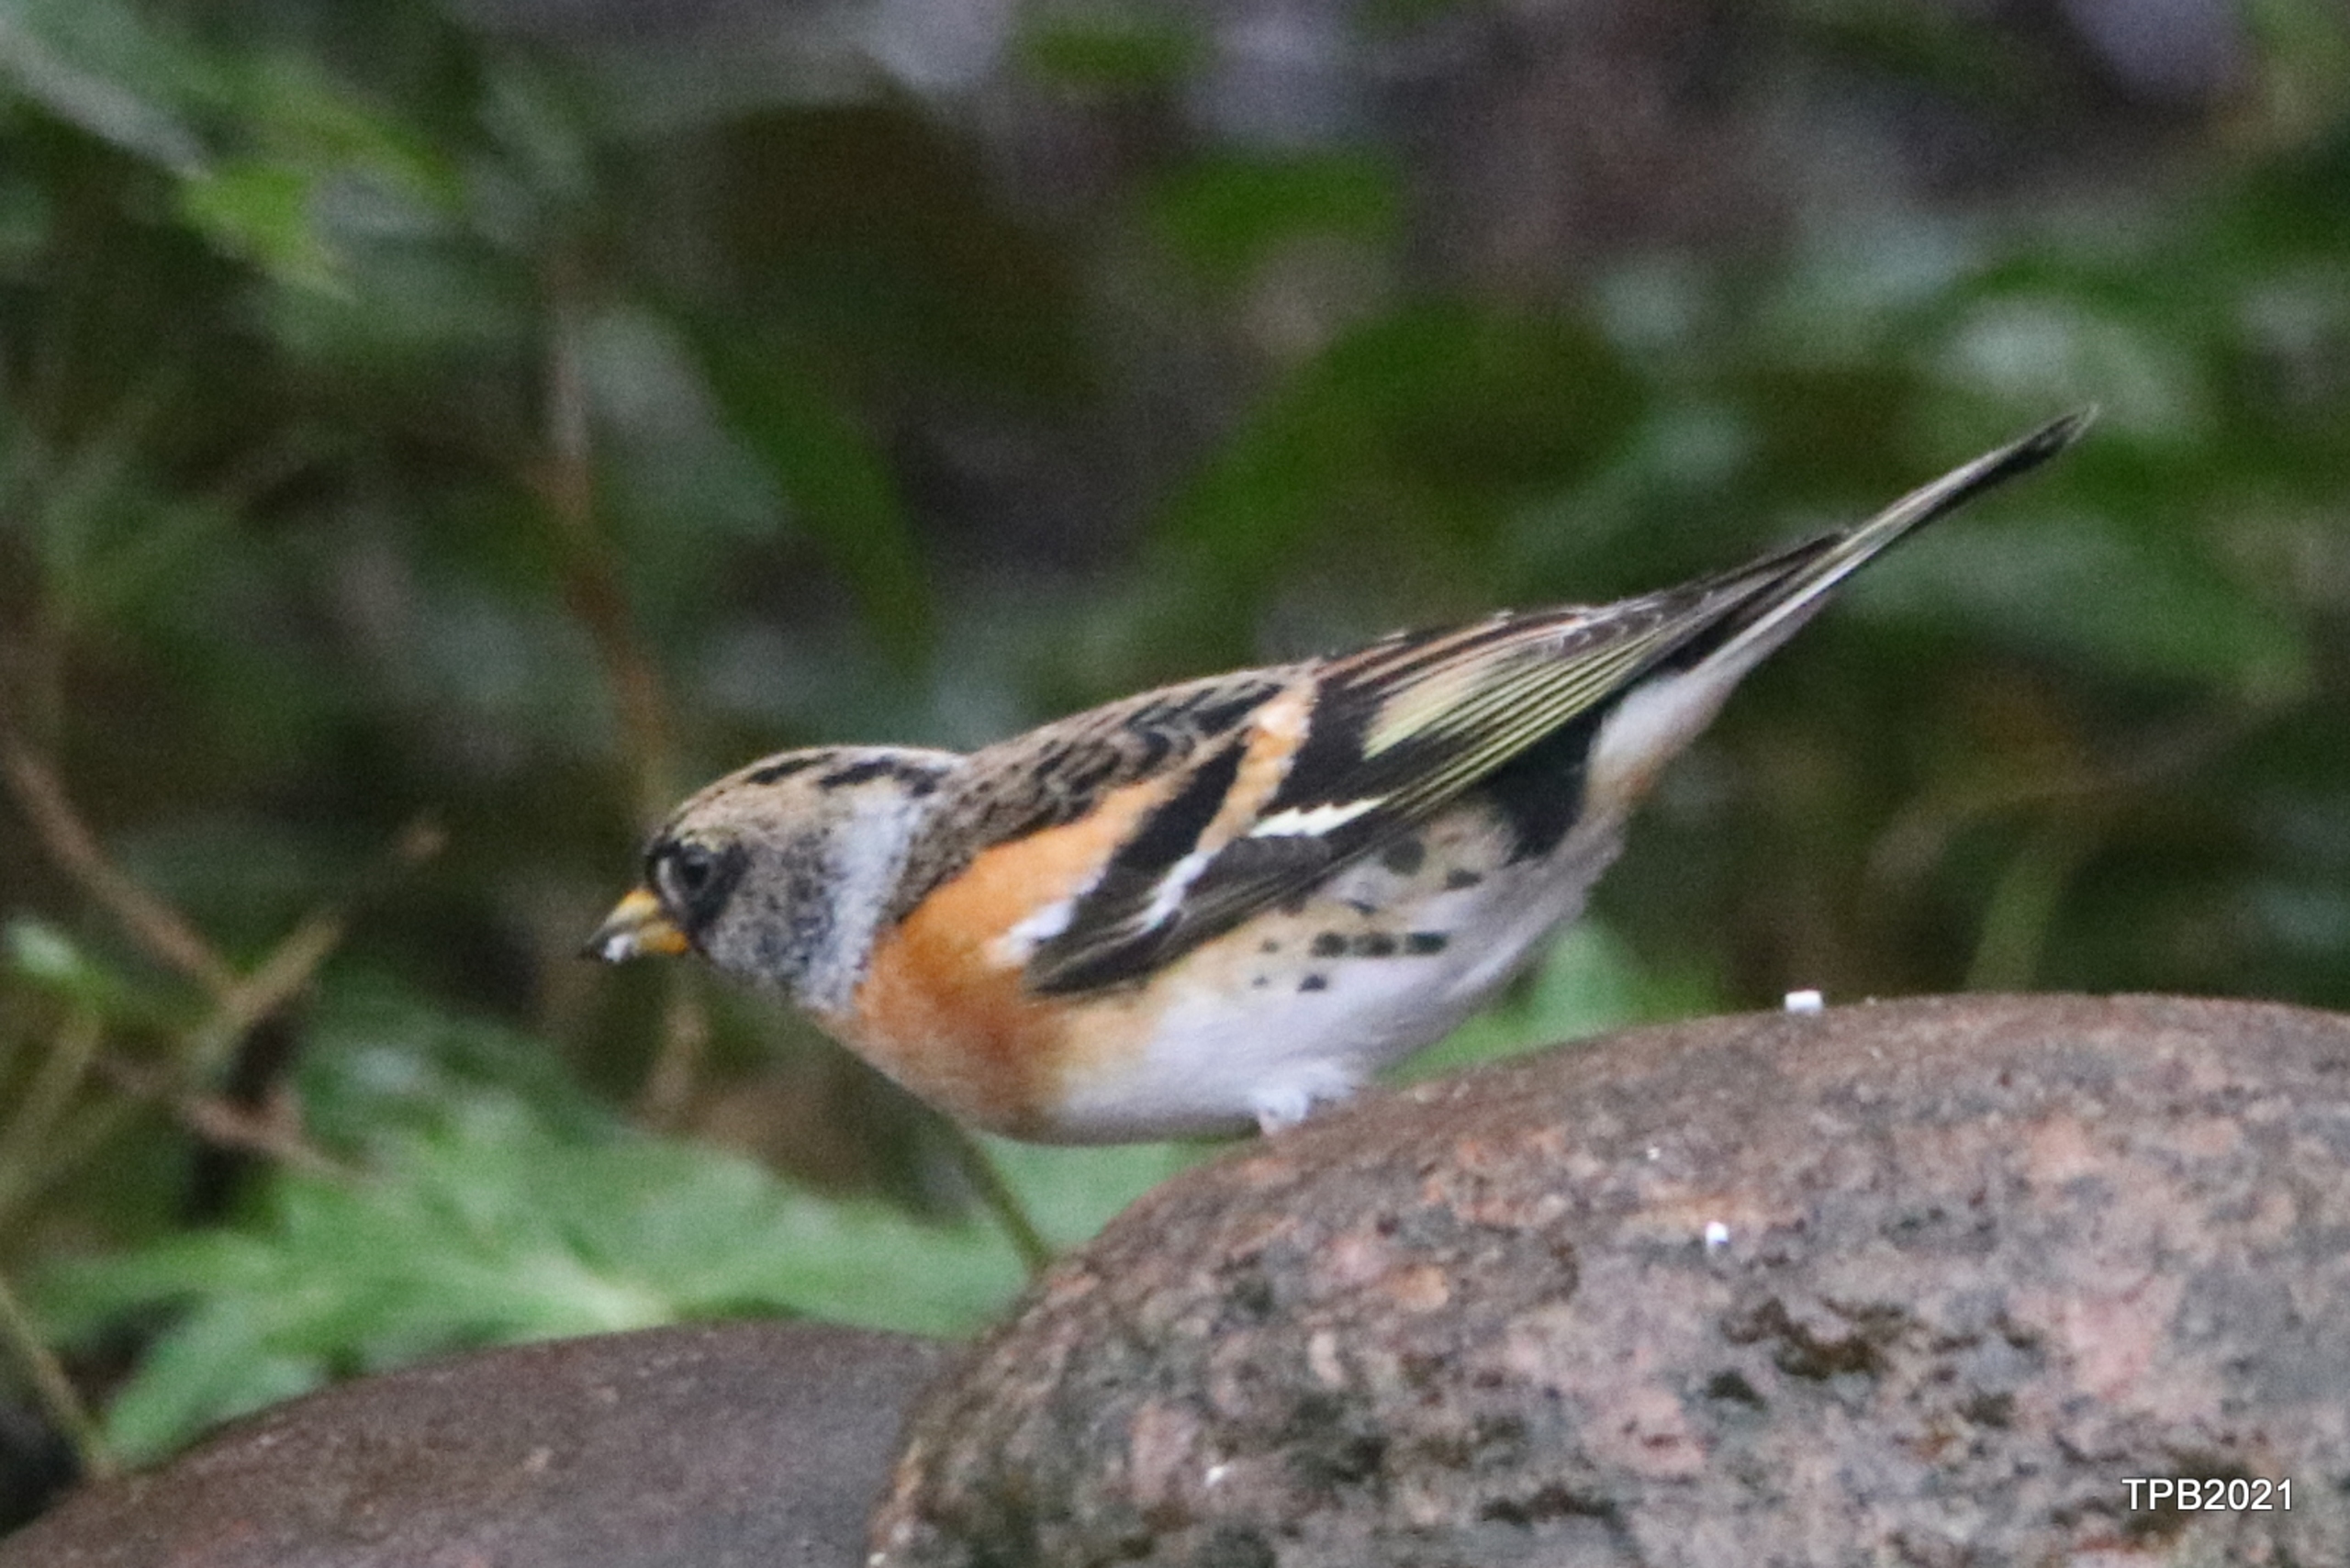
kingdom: Animalia
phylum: Chordata
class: Aves
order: Passeriformes
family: Fringillidae
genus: Fringilla
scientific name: Fringilla montifringilla
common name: Kvækerfinke
